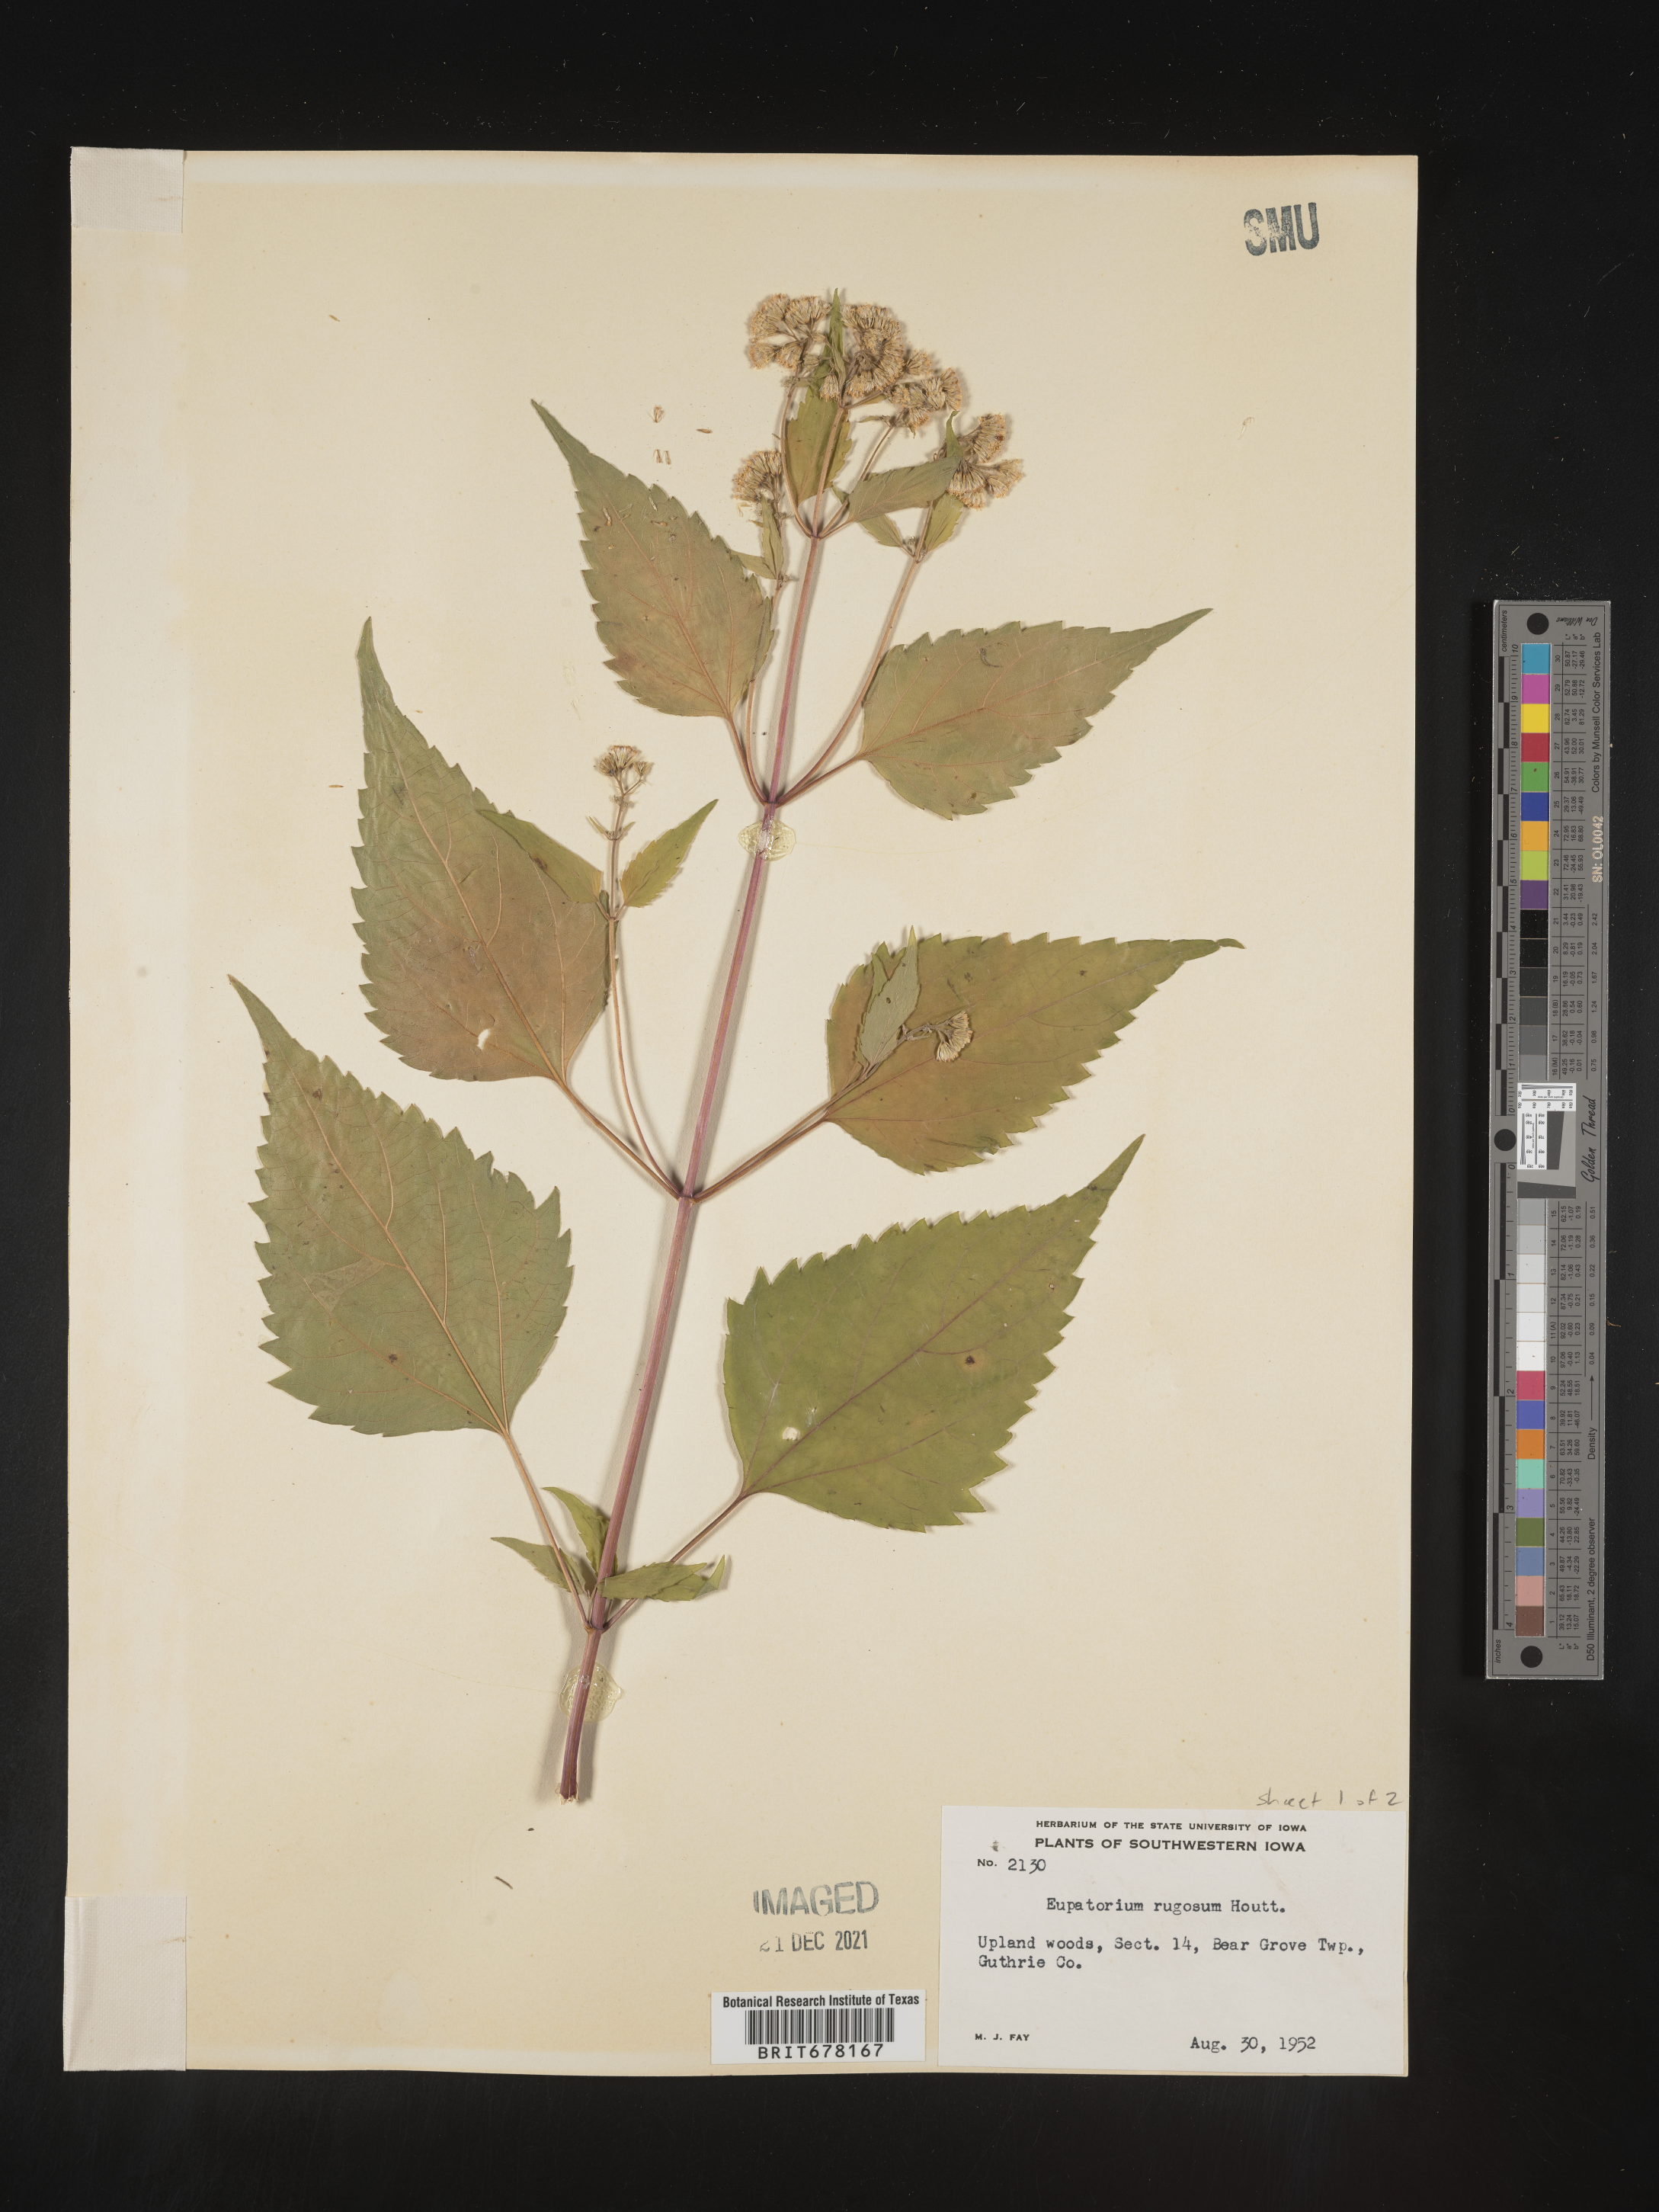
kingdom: Plantae
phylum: Tracheophyta
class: Magnoliopsida
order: Asterales
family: Asteraceae
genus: Eupatorium
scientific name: Eupatorium
